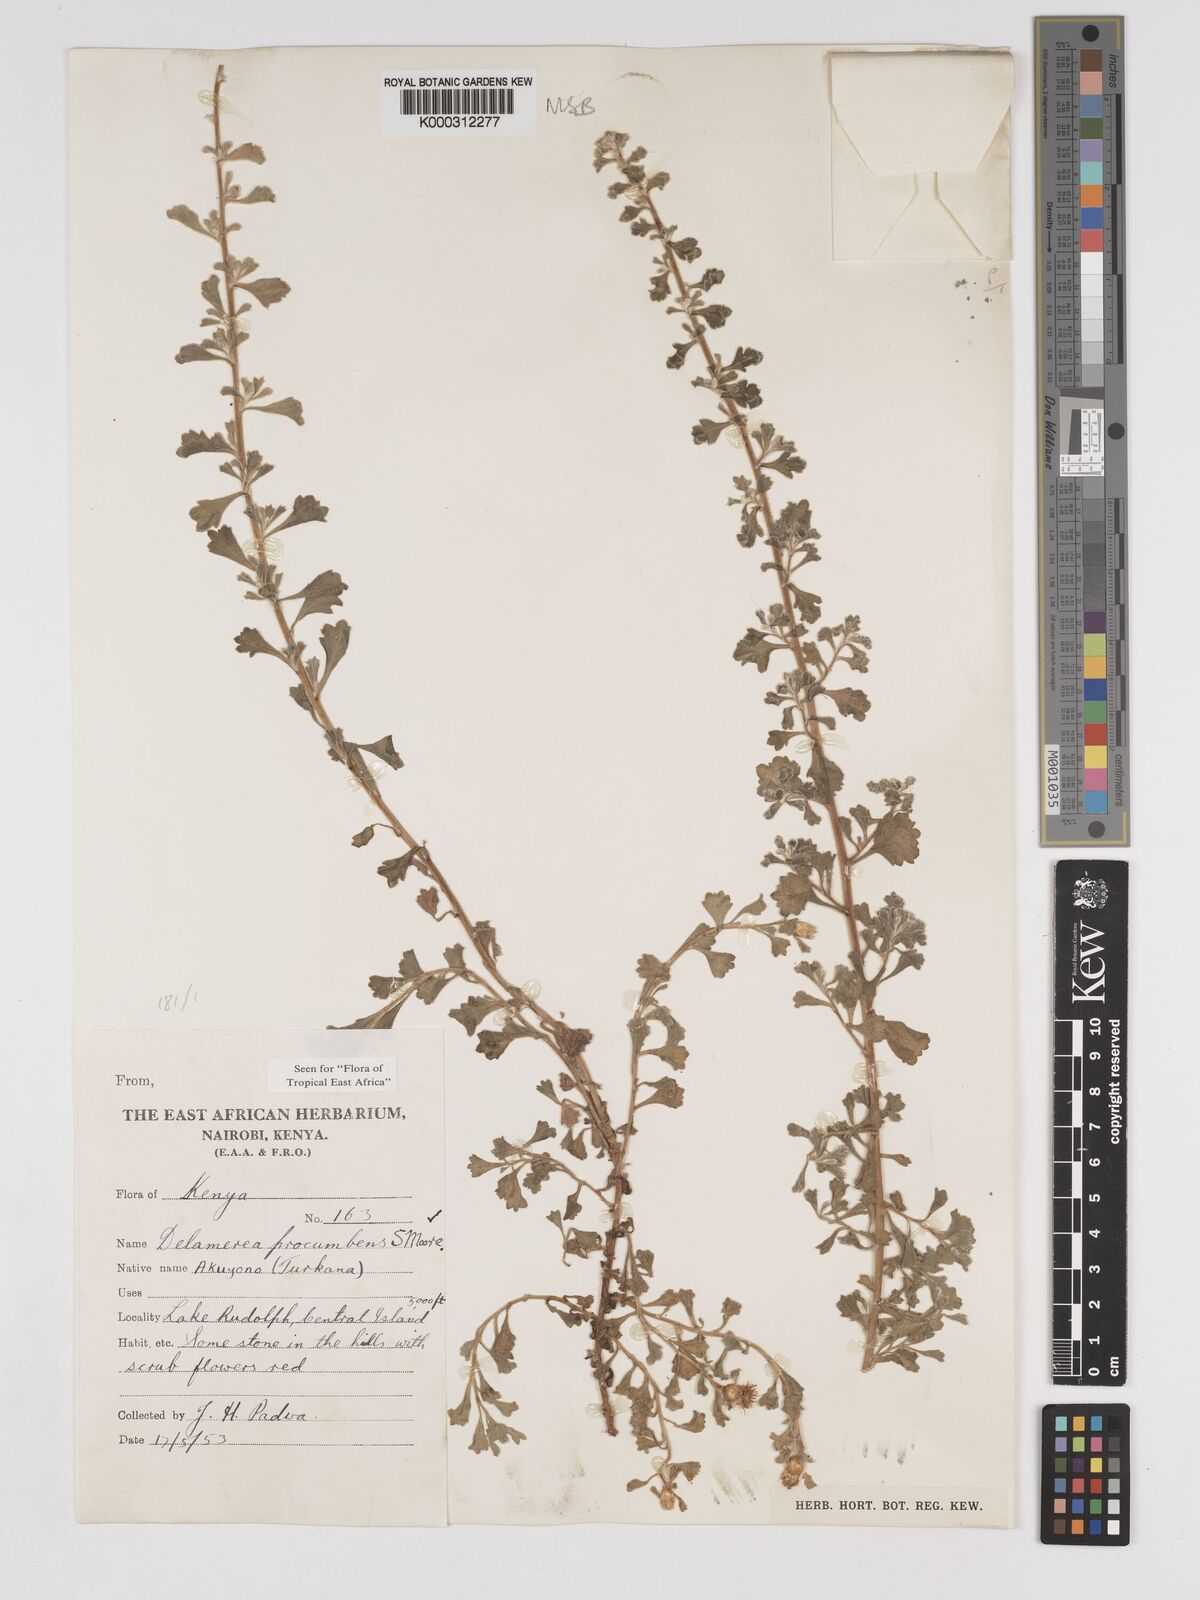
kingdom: Plantae
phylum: Tracheophyta
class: Magnoliopsida
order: Asterales
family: Asteraceae
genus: Delamerea
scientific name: Delamerea procumbens
